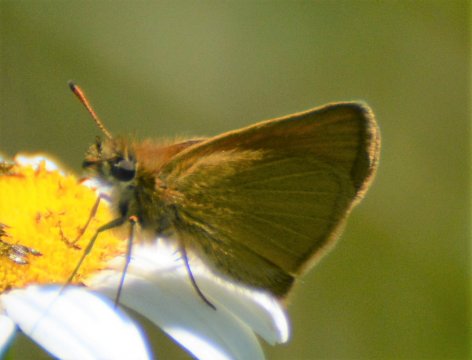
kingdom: Animalia
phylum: Arthropoda
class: Insecta
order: Lepidoptera
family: Hesperiidae
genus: Thymelicus
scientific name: Thymelicus lineola
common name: European Skipper
